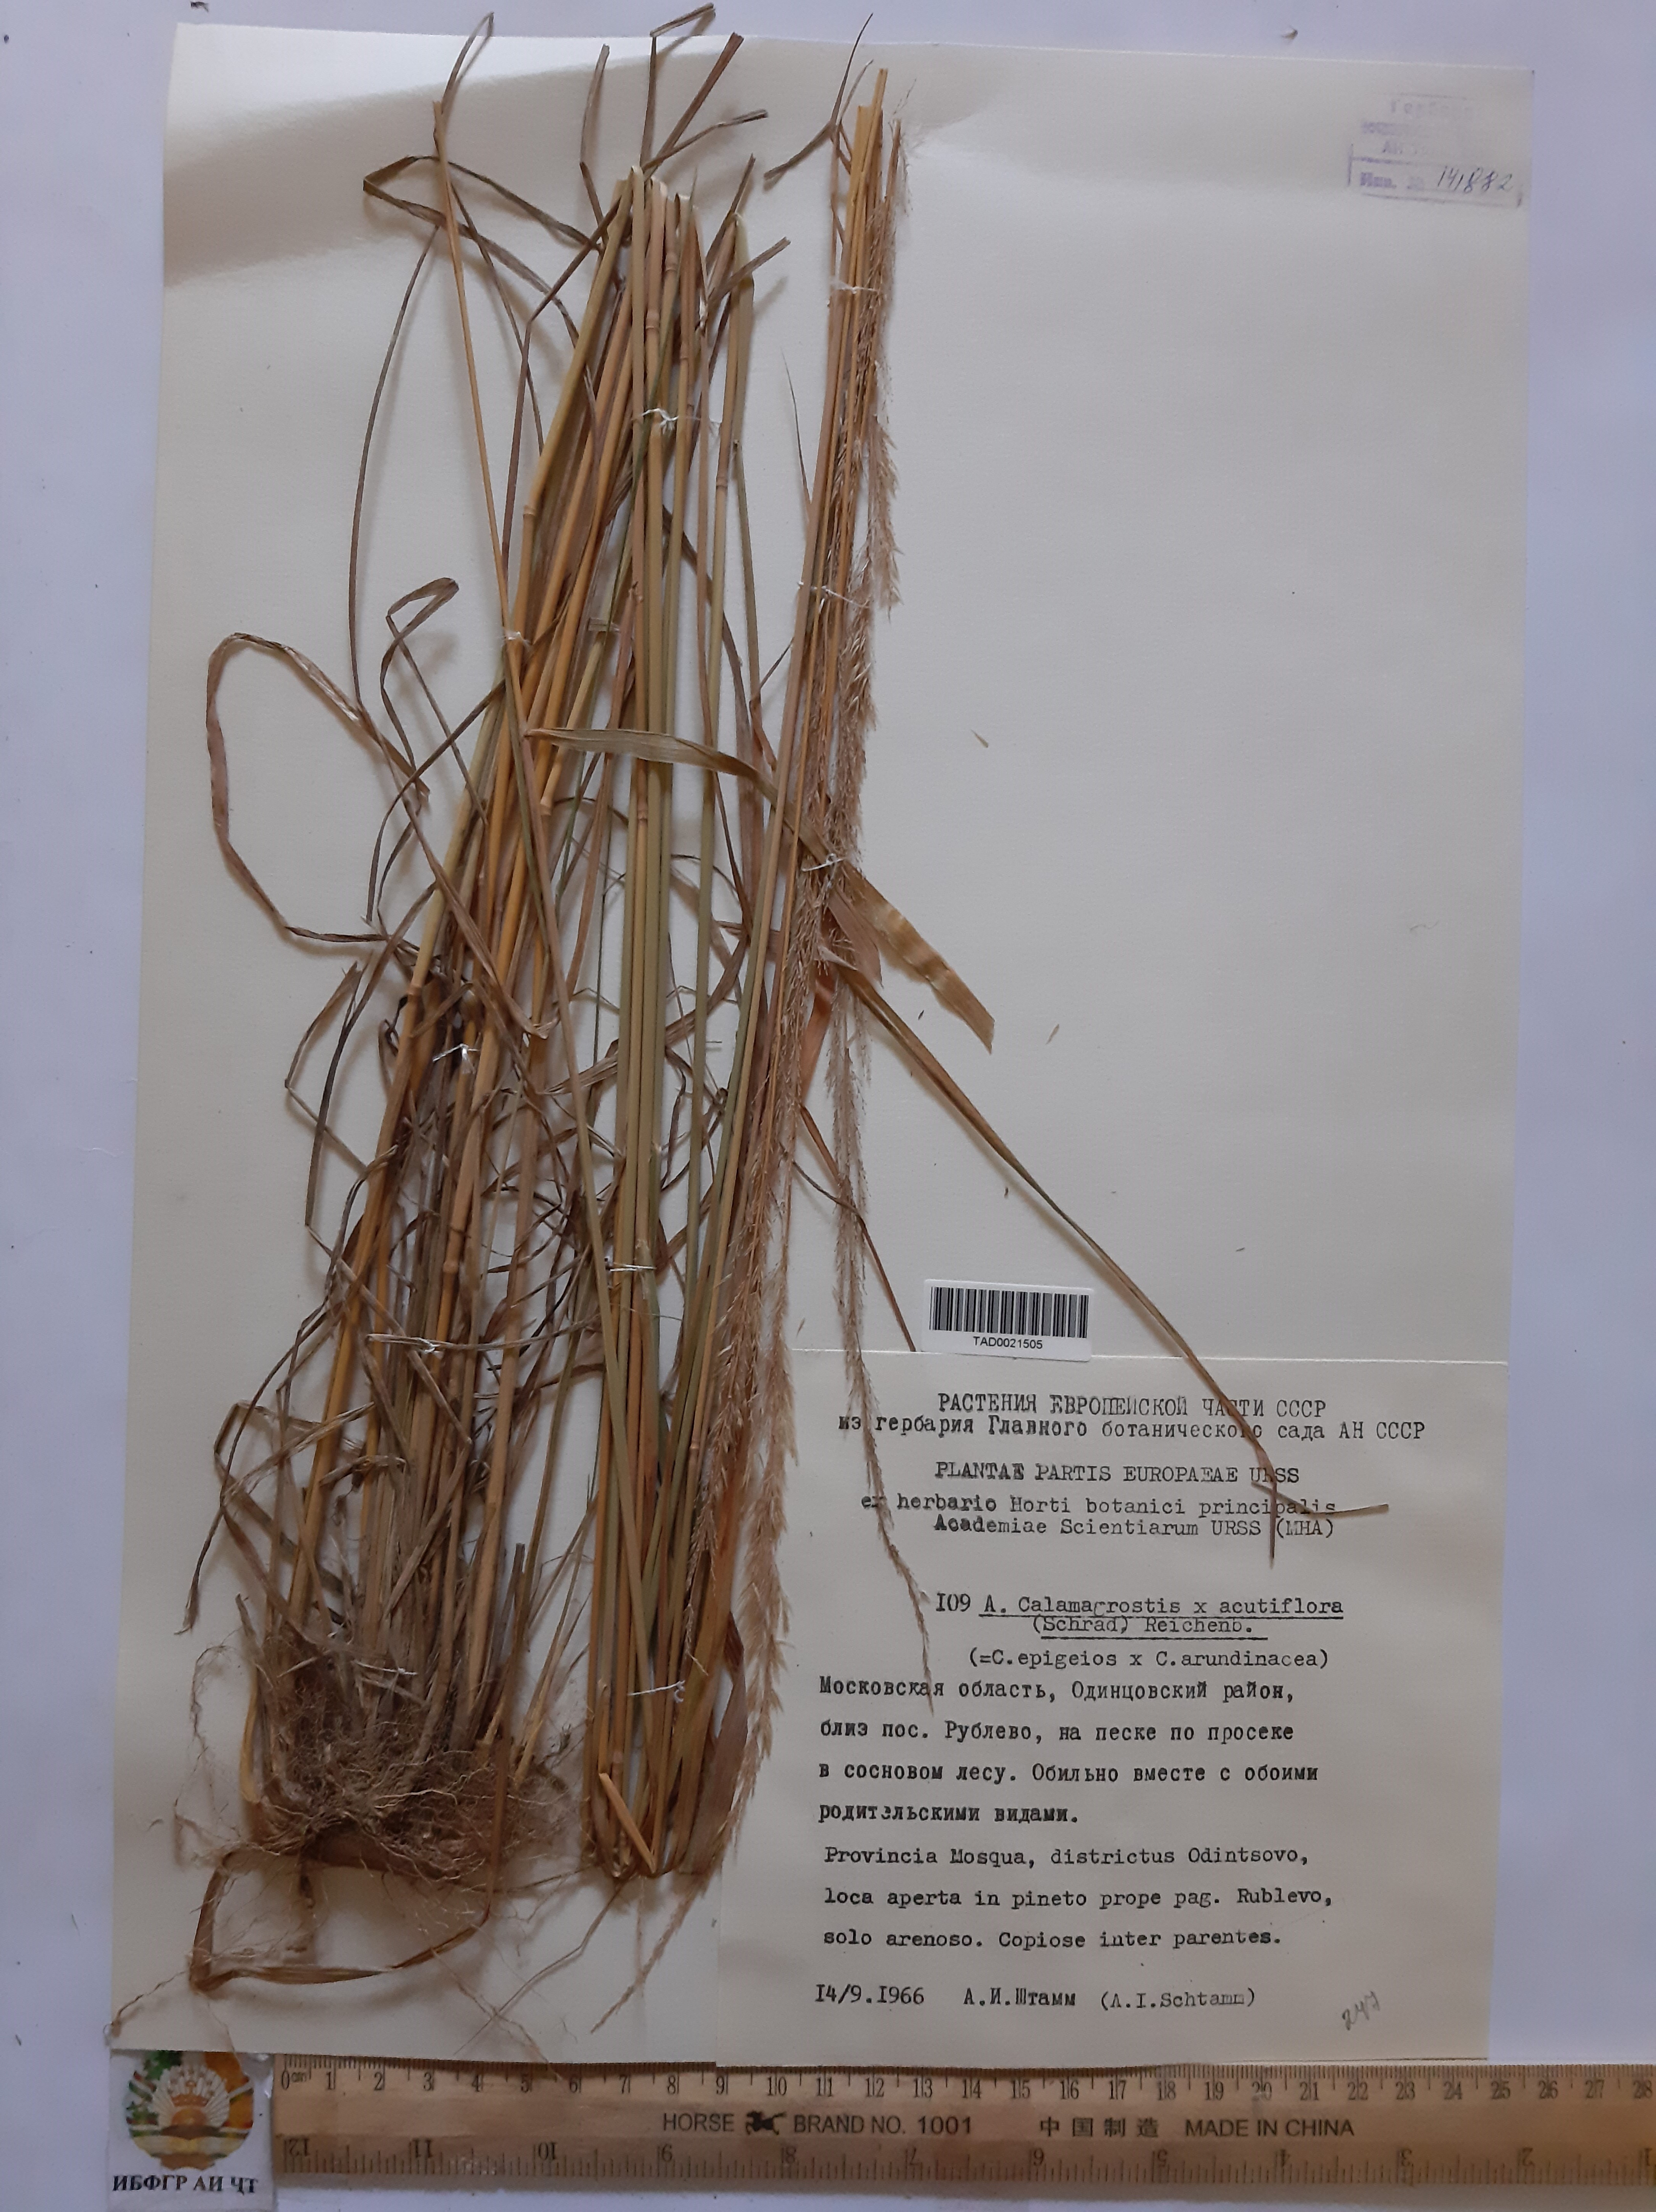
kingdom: Plantae
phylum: Tracheophyta
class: Liliopsida
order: Poales
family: Poaceae
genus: Calamagrostis
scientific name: Calamagrostis acutiflora
